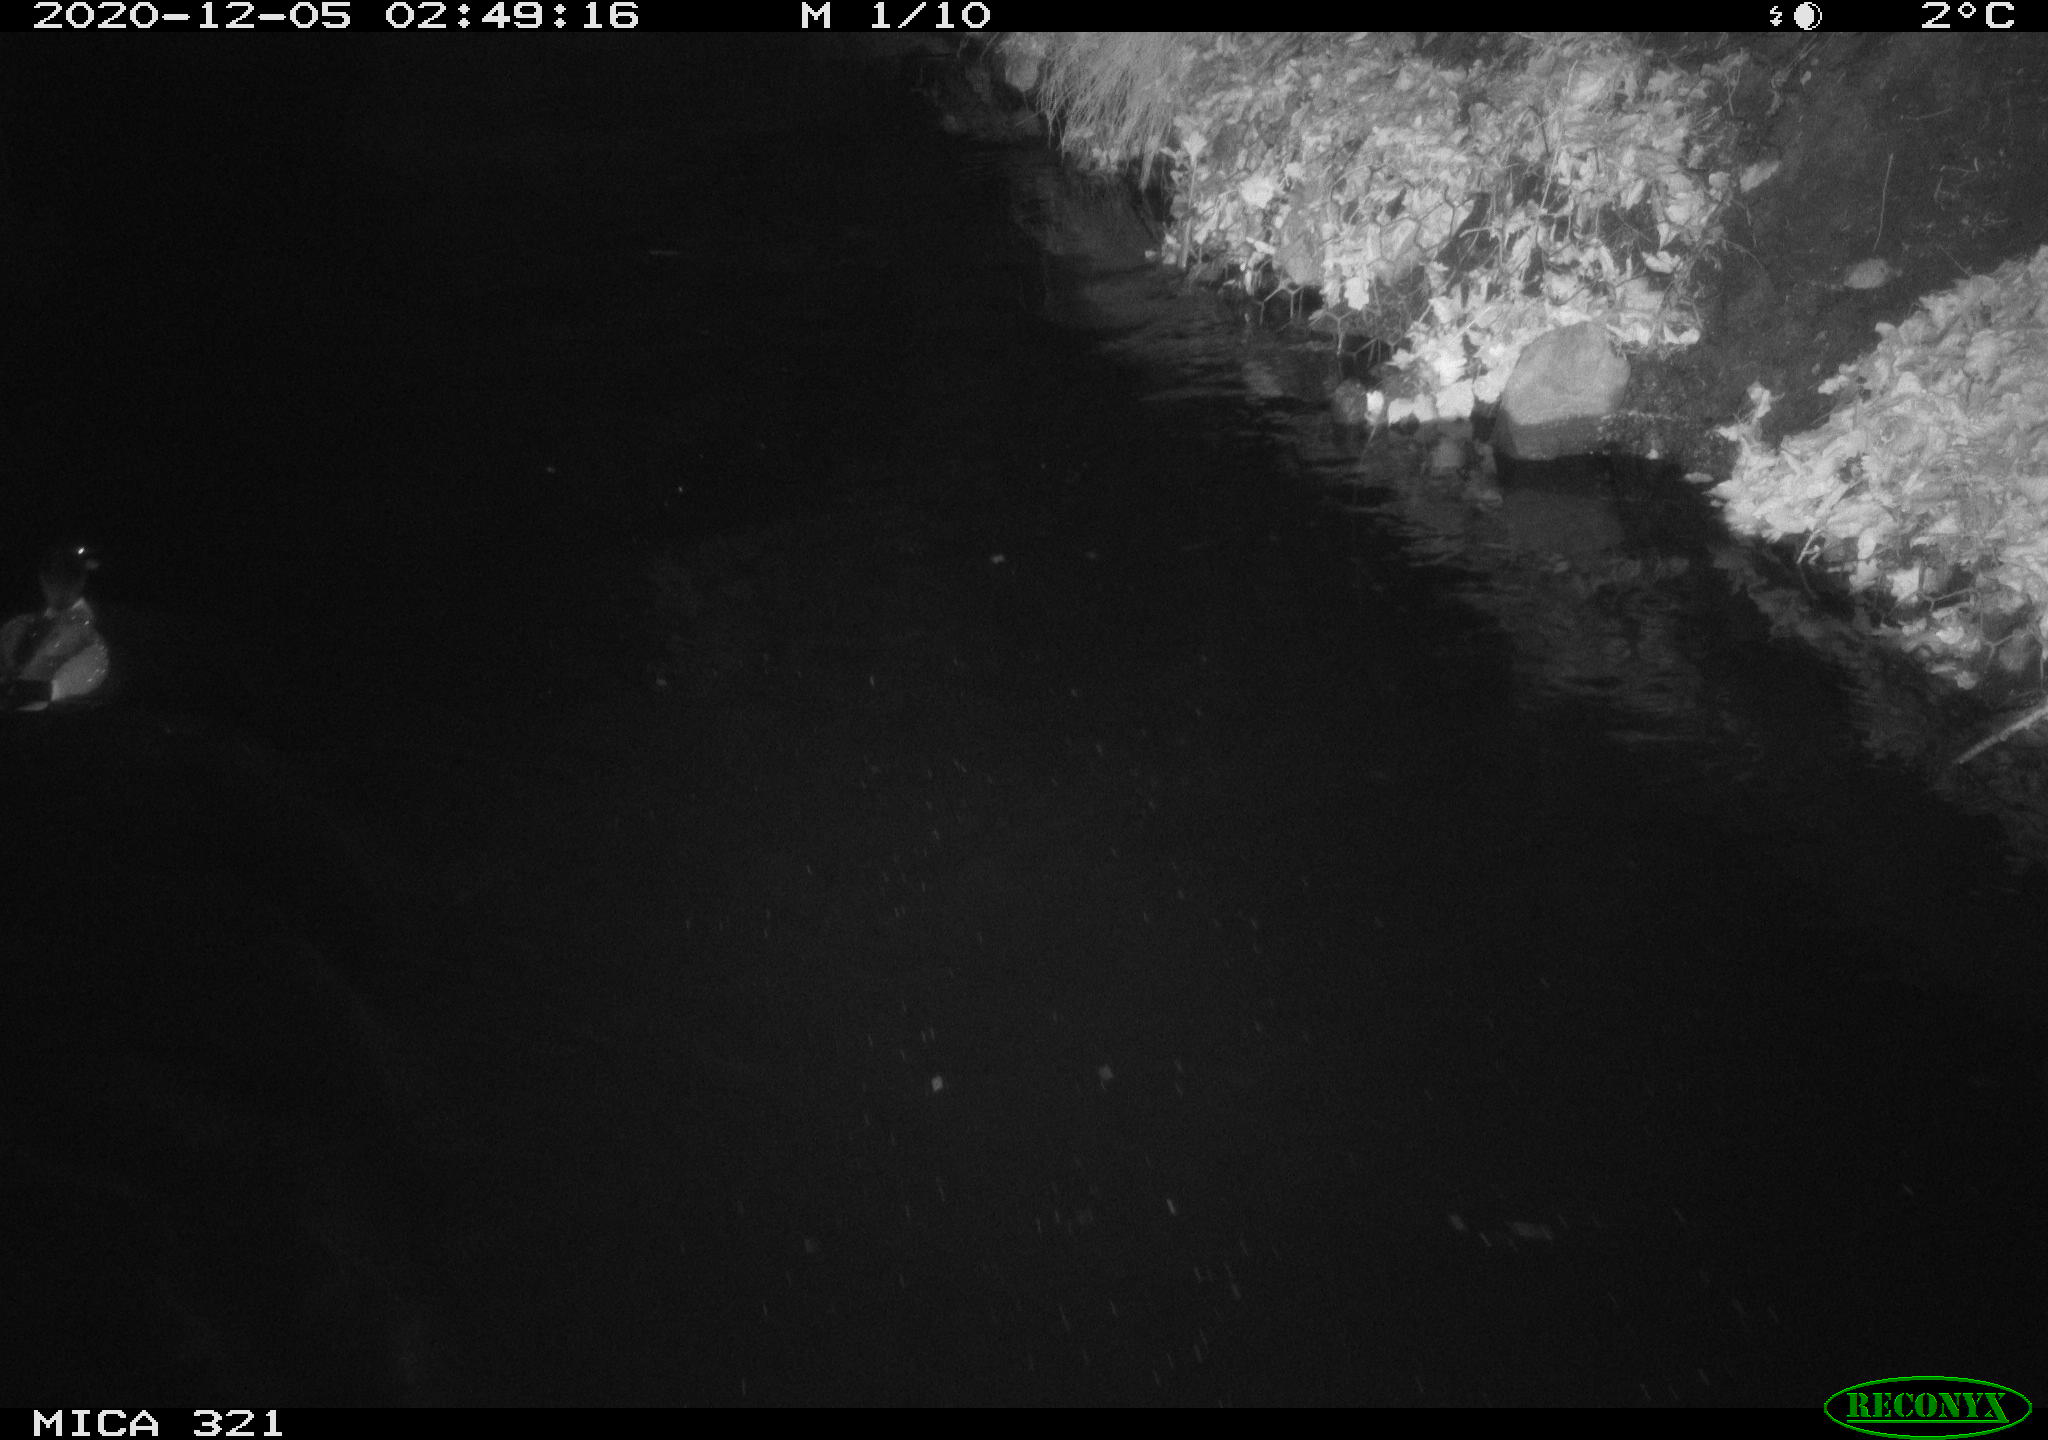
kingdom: Animalia
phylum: Chordata
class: Aves
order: Anseriformes
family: Anatidae
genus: Anas
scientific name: Anas platyrhynchos
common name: Mallard
